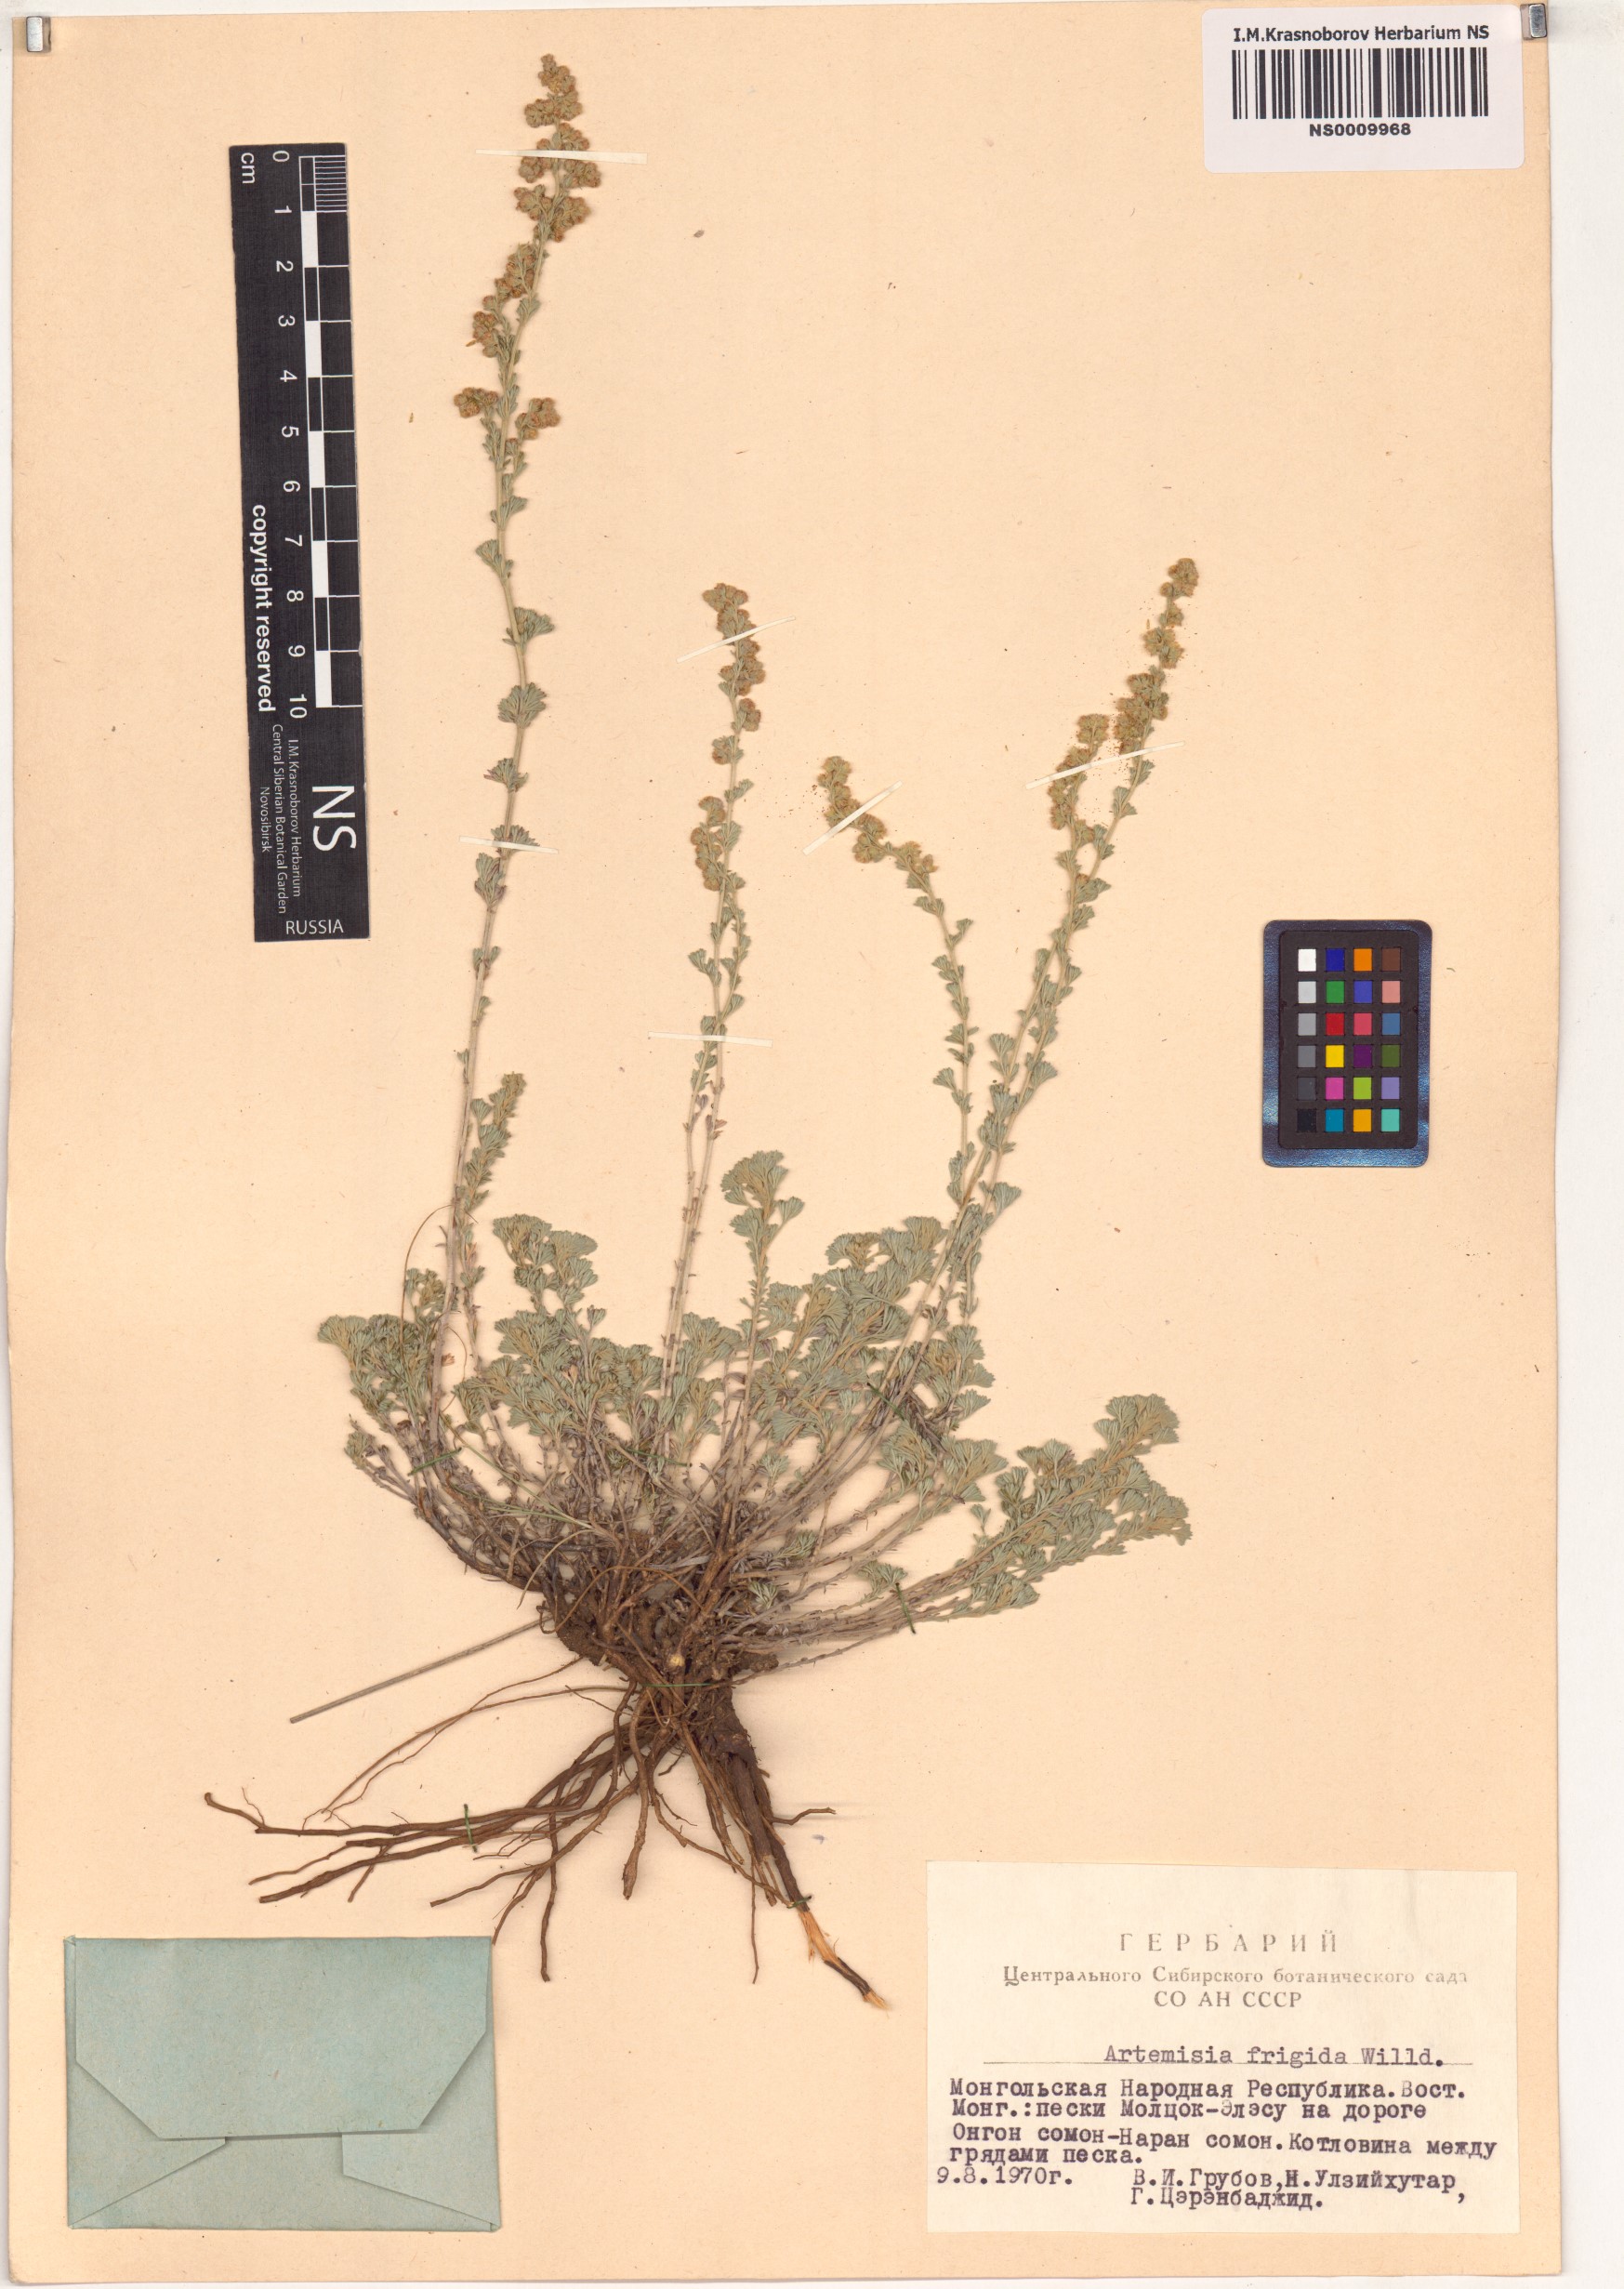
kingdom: Plantae
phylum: Tracheophyta
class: Magnoliopsida
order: Asterales
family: Asteraceae
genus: Artemisia
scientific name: Artemisia frigida
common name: Prairie sagewort
